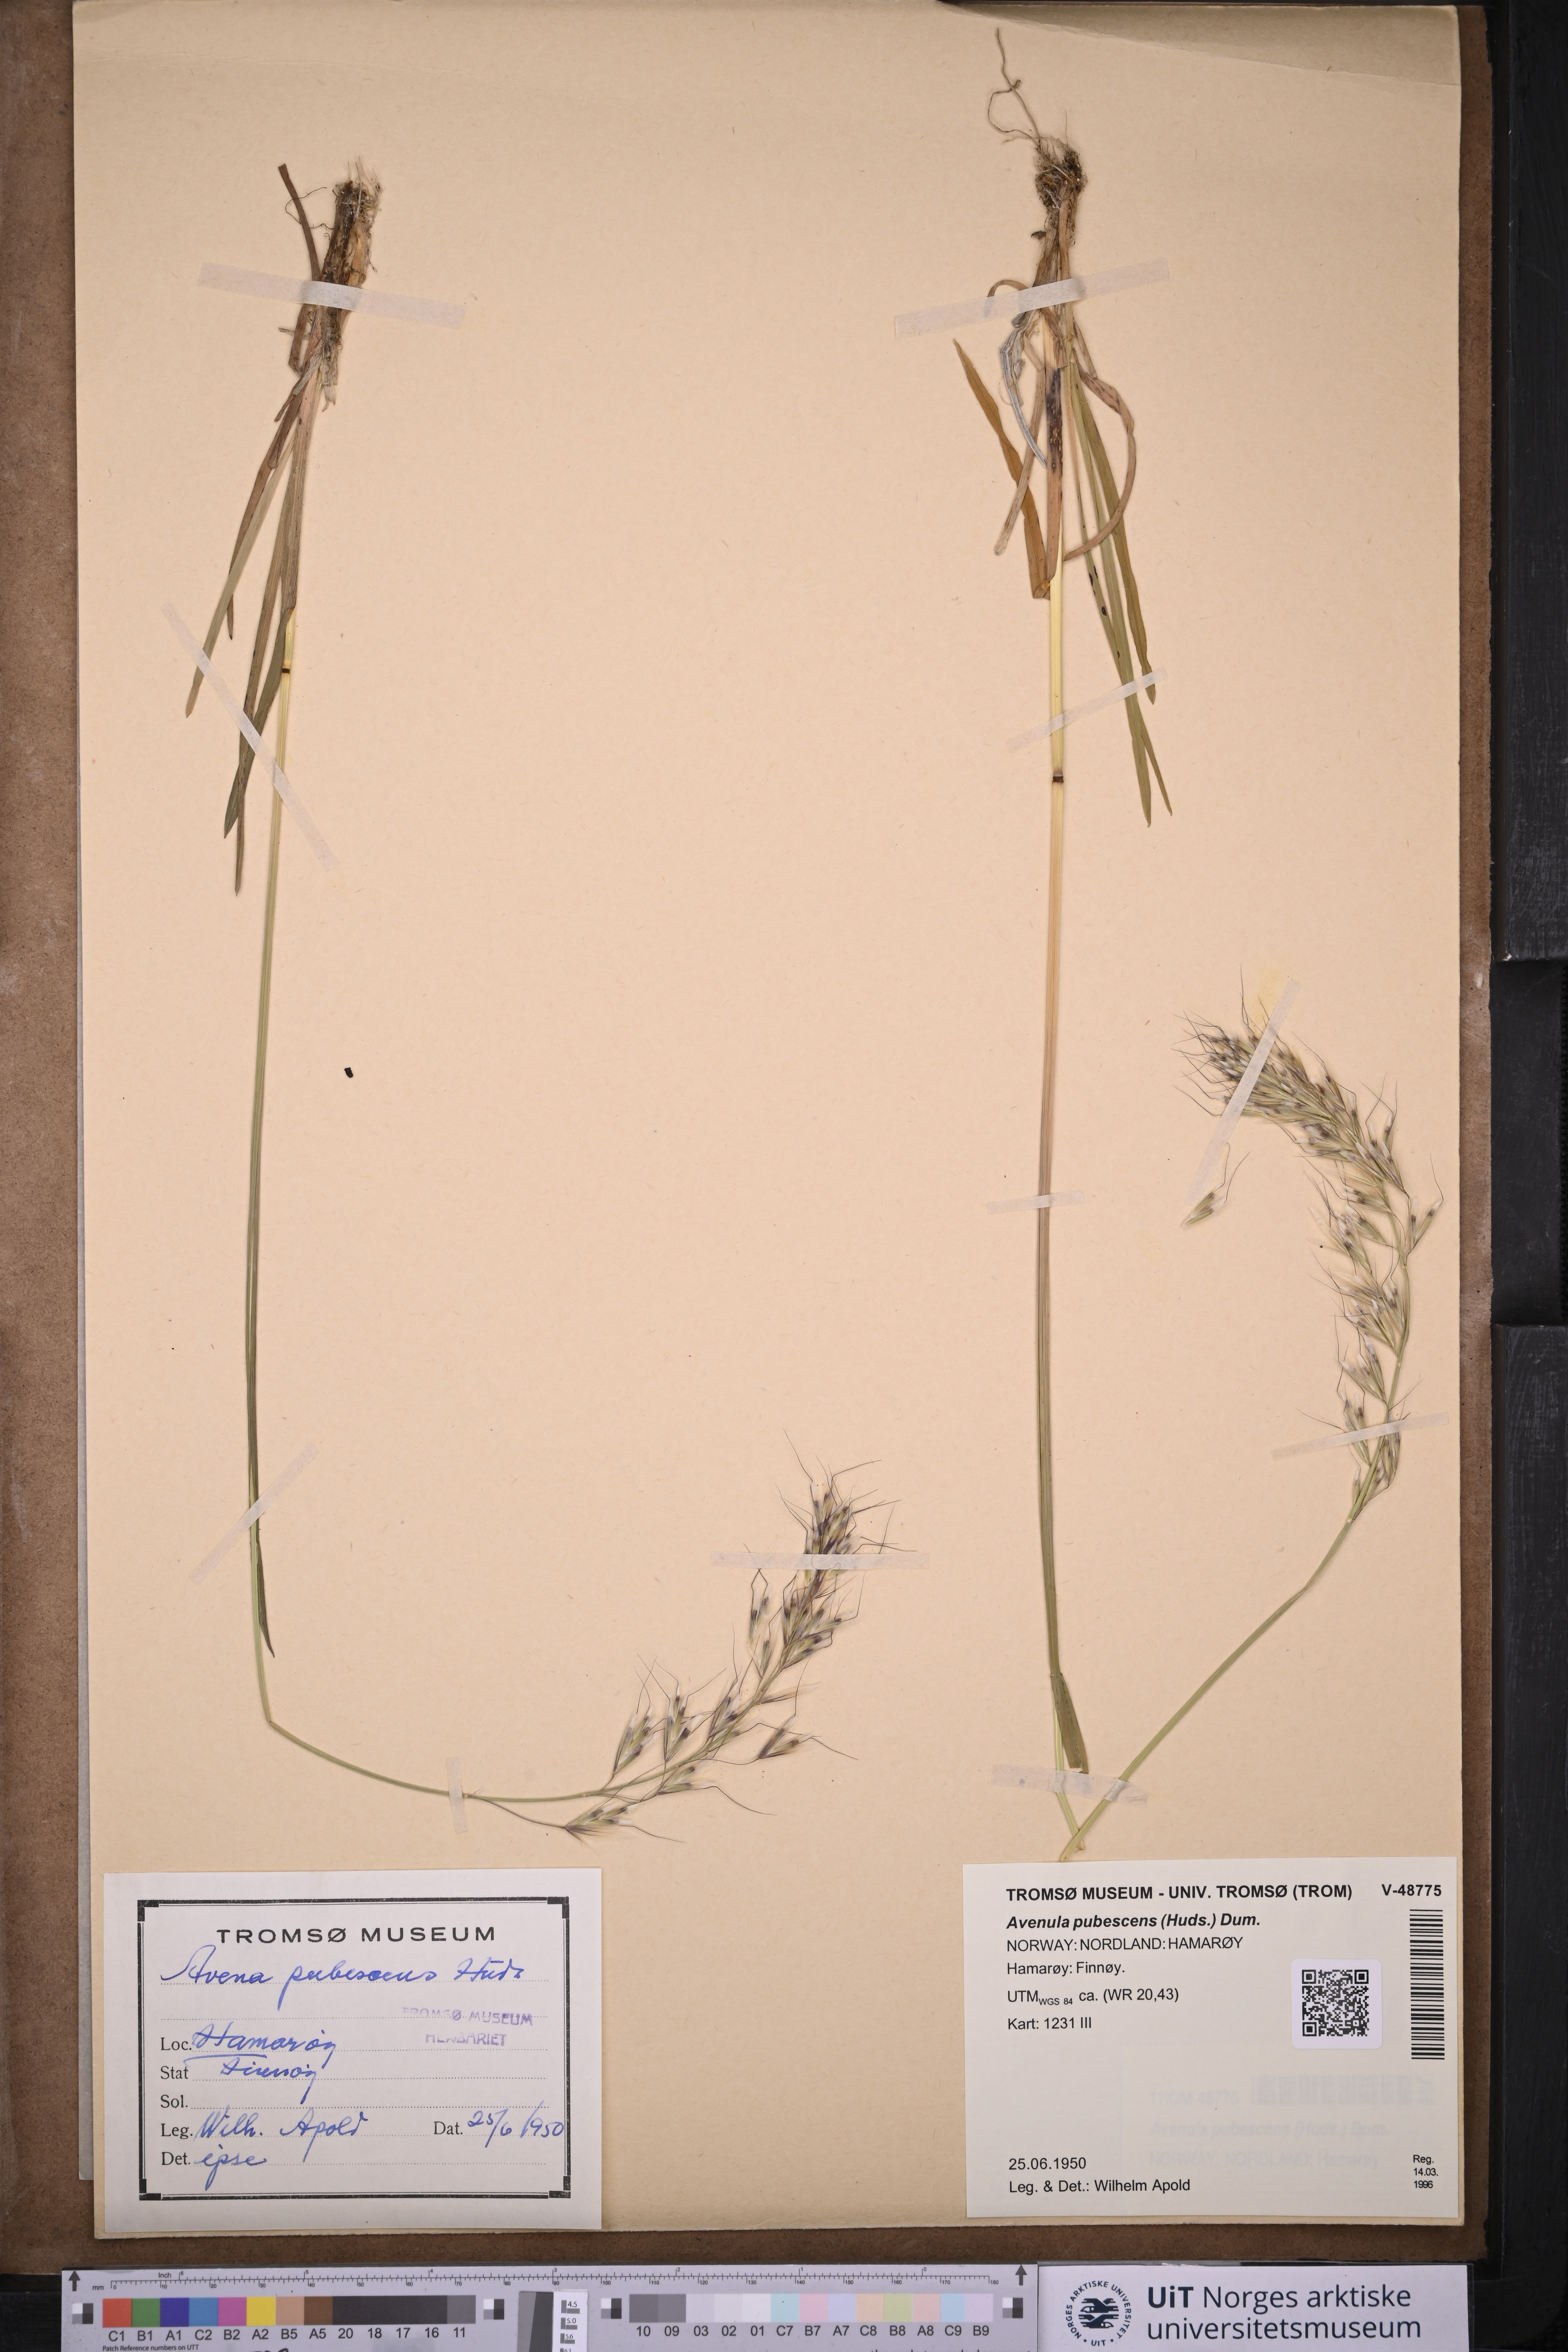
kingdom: Plantae
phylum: Tracheophyta
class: Liliopsida
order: Poales
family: Poaceae
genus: Avenula
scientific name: Avenula pubescens
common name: Downy alpine oatgrass
